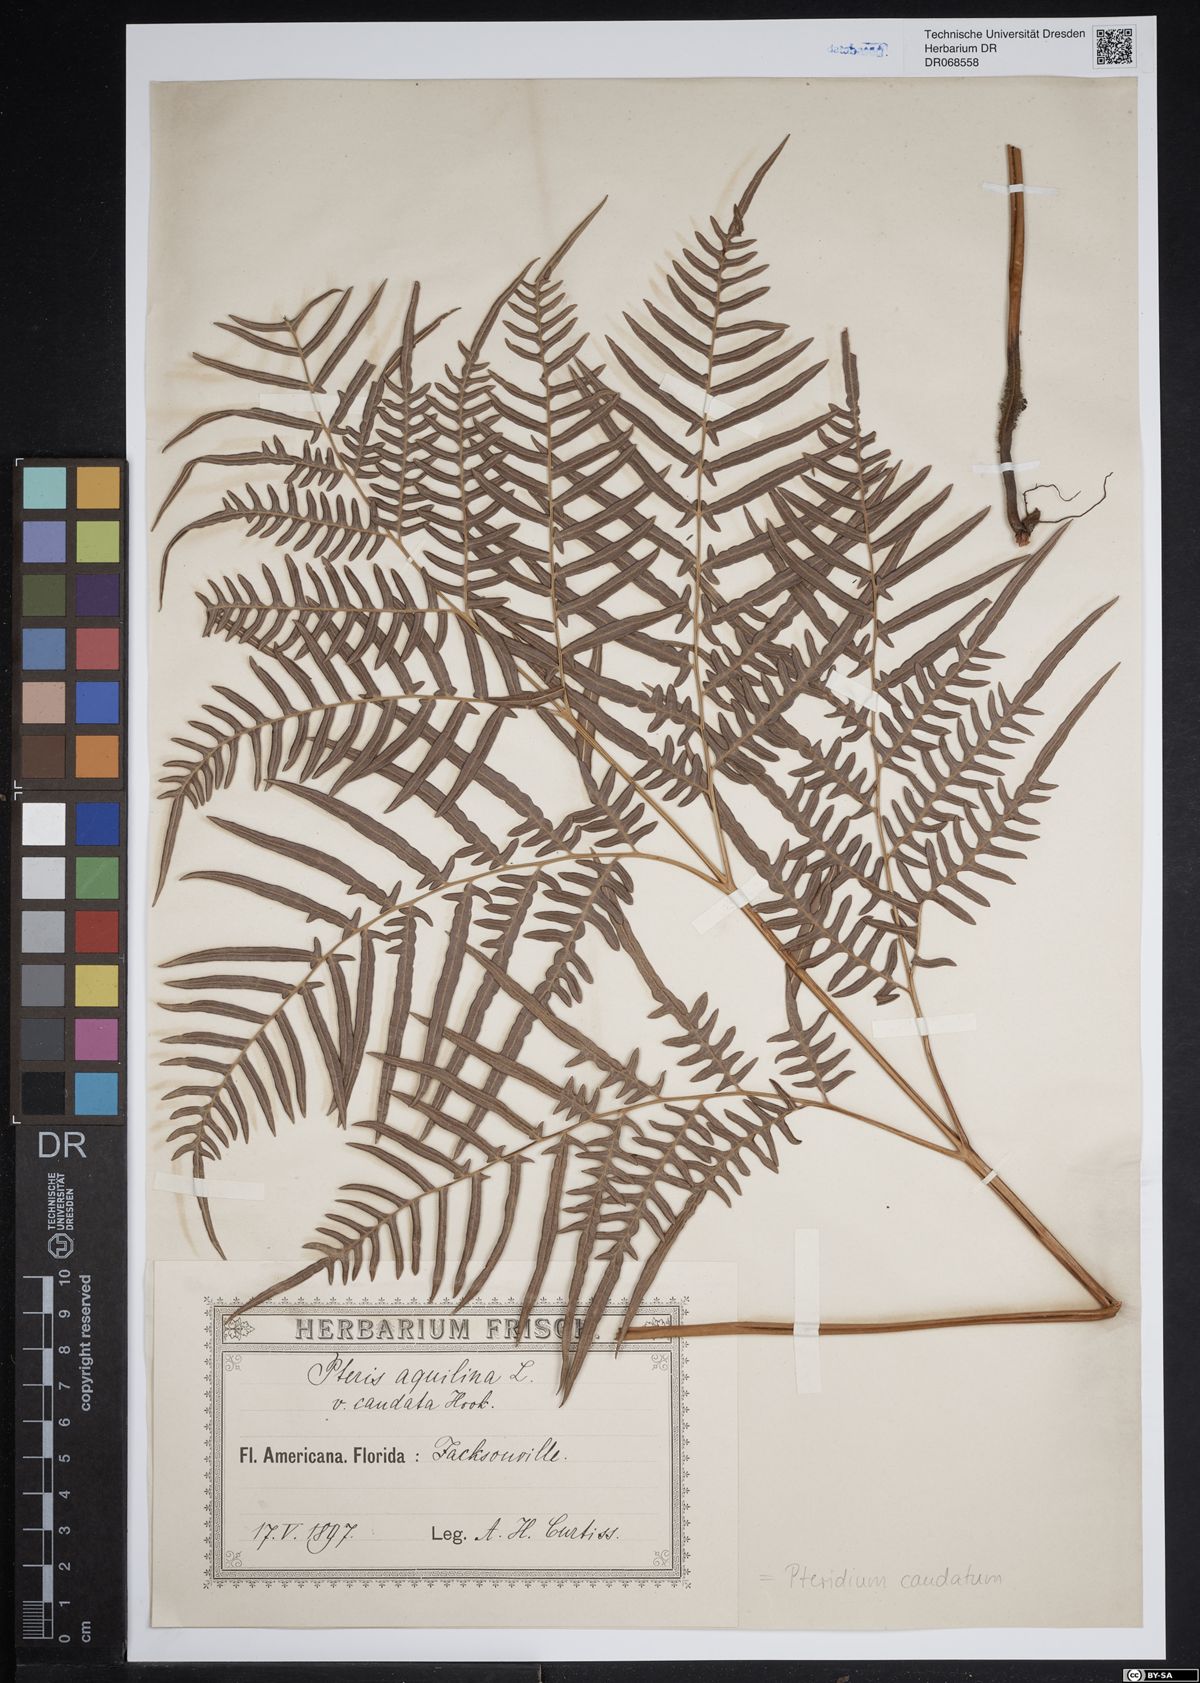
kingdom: Plantae
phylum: Tracheophyta
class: Polypodiopsida
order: Polypodiales
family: Dennstaedtiaceae
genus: Pteridium
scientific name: Pteridium caudatum
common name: Southern bracken fern
